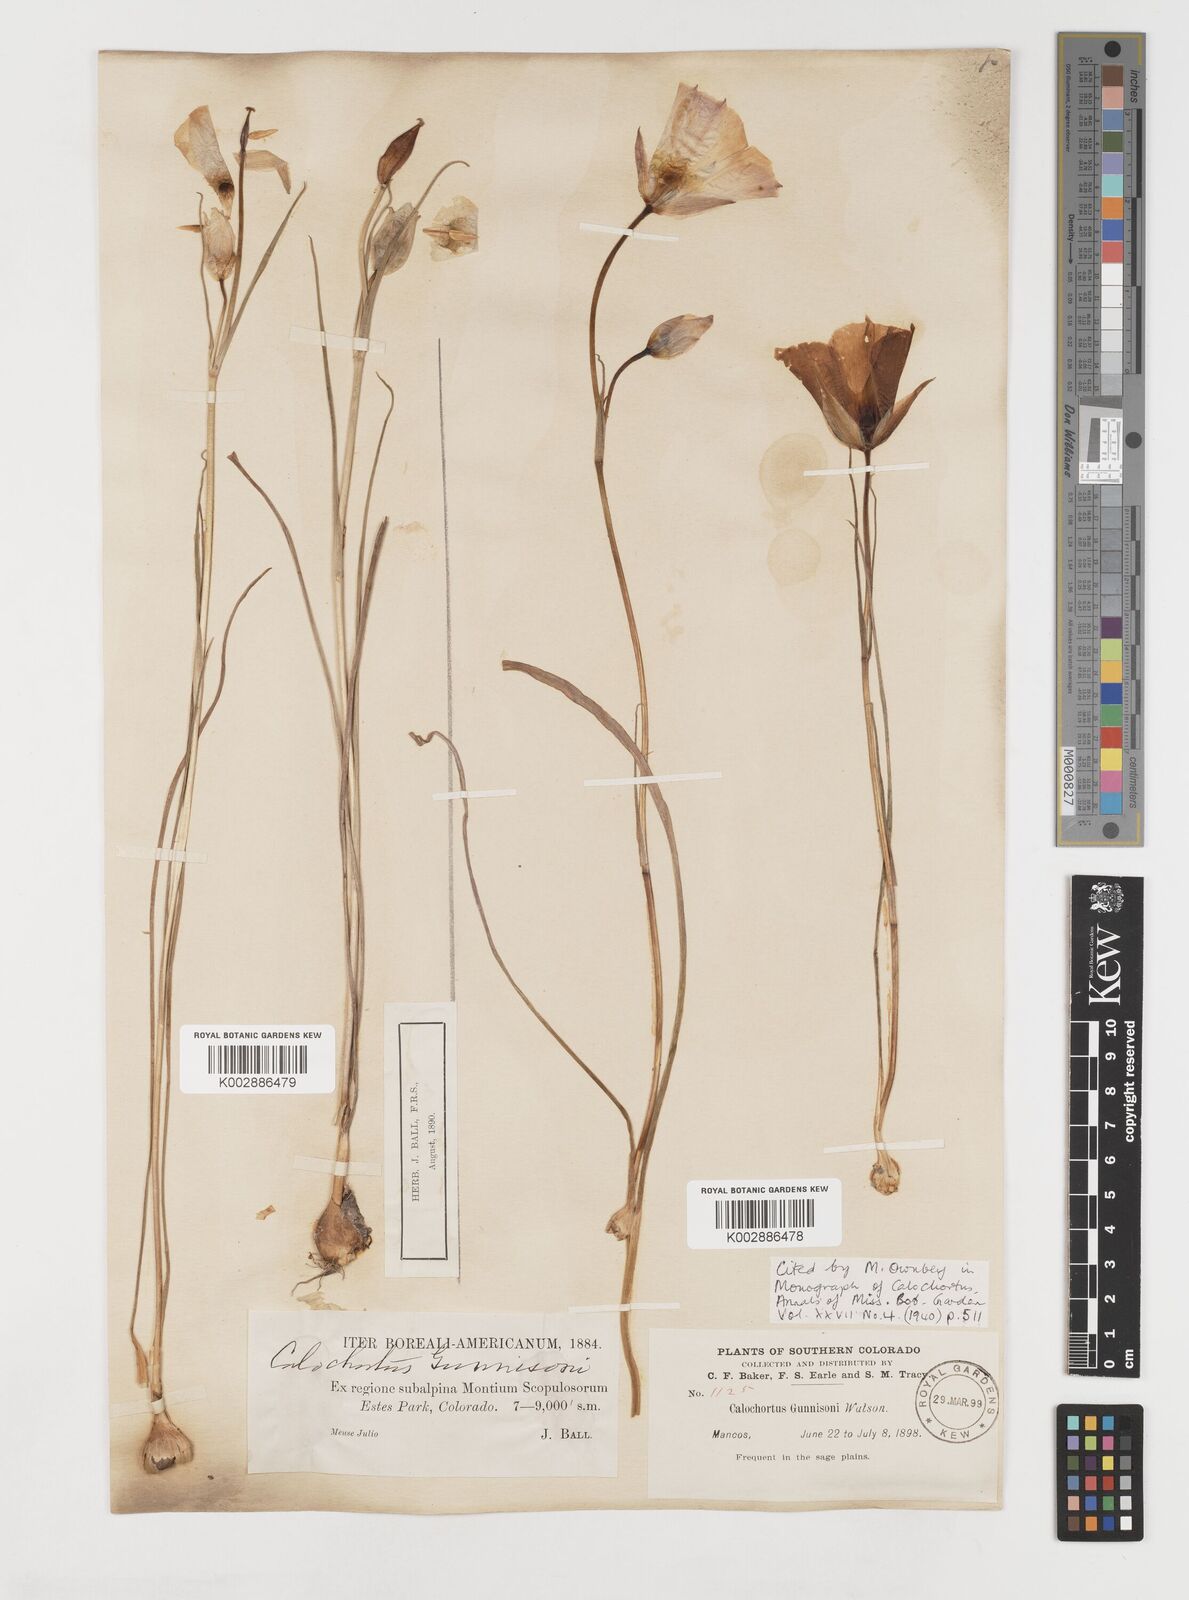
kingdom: Plantae
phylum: Tracheophyta
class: Liliopsida
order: Liliales
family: Liliaceae
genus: Calochortus
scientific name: Calochortus gunnisonii
